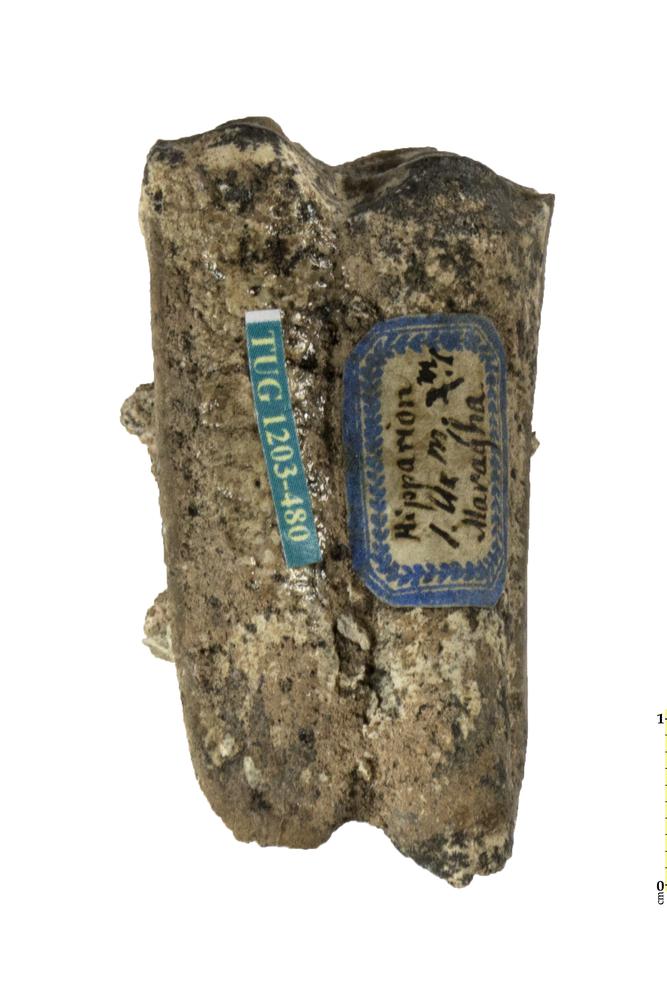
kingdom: Animalia
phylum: Chordata
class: Mammalia
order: Perissodactyla
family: Equidae
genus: Hipparion
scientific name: Hipparion
